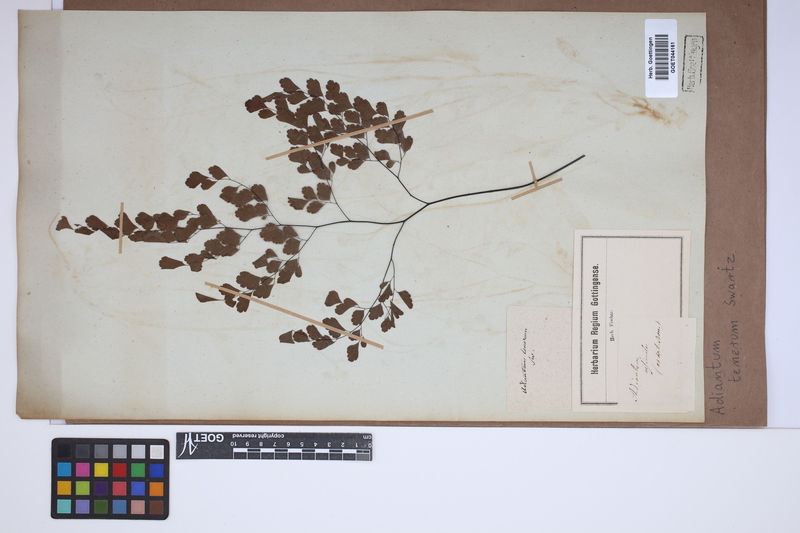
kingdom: Plantae
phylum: Tracheophyta
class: Polypodiopsida
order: Polypodiales
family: Pteridaceae
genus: Adiantum
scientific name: Adiantum tenerum
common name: Fan maidenhair
